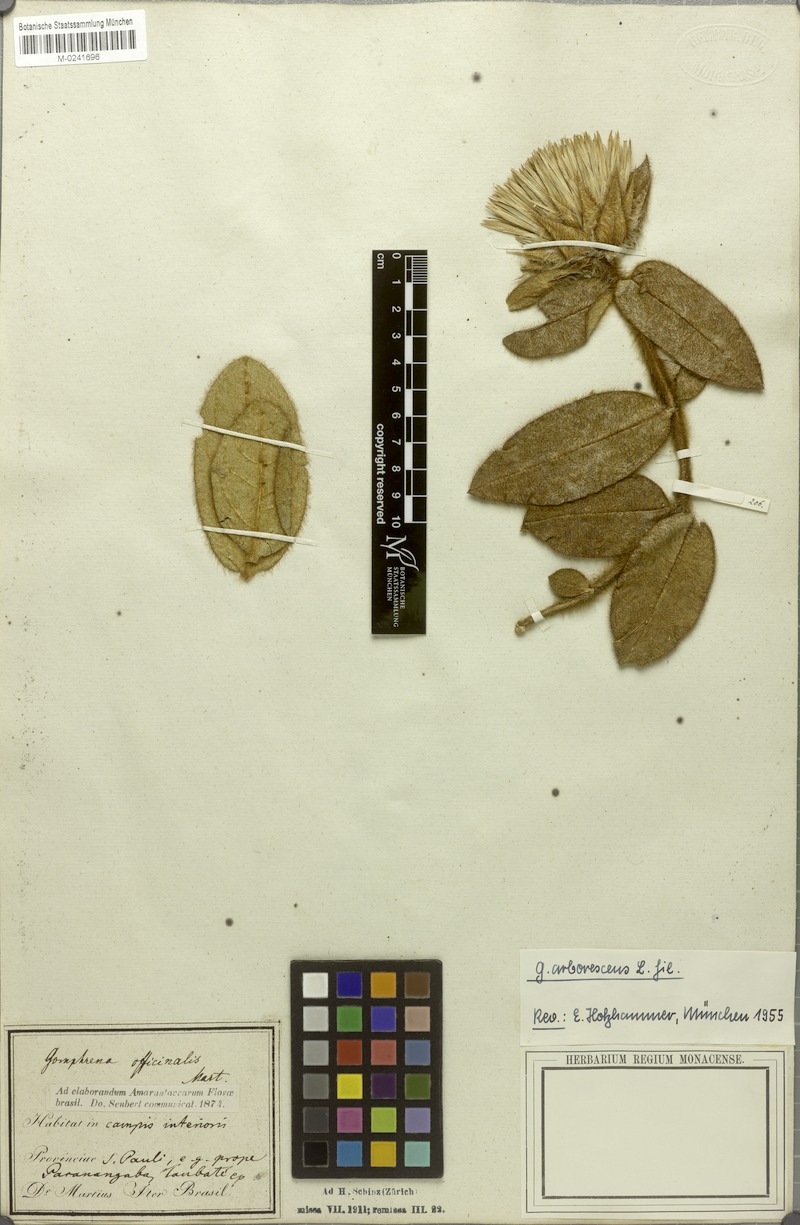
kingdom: Plantae
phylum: Tracheophyta
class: Magnoliopsida
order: Caryophyllales
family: Amaranthaceae
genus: Gomphrena
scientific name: Gomphrena arborescens
